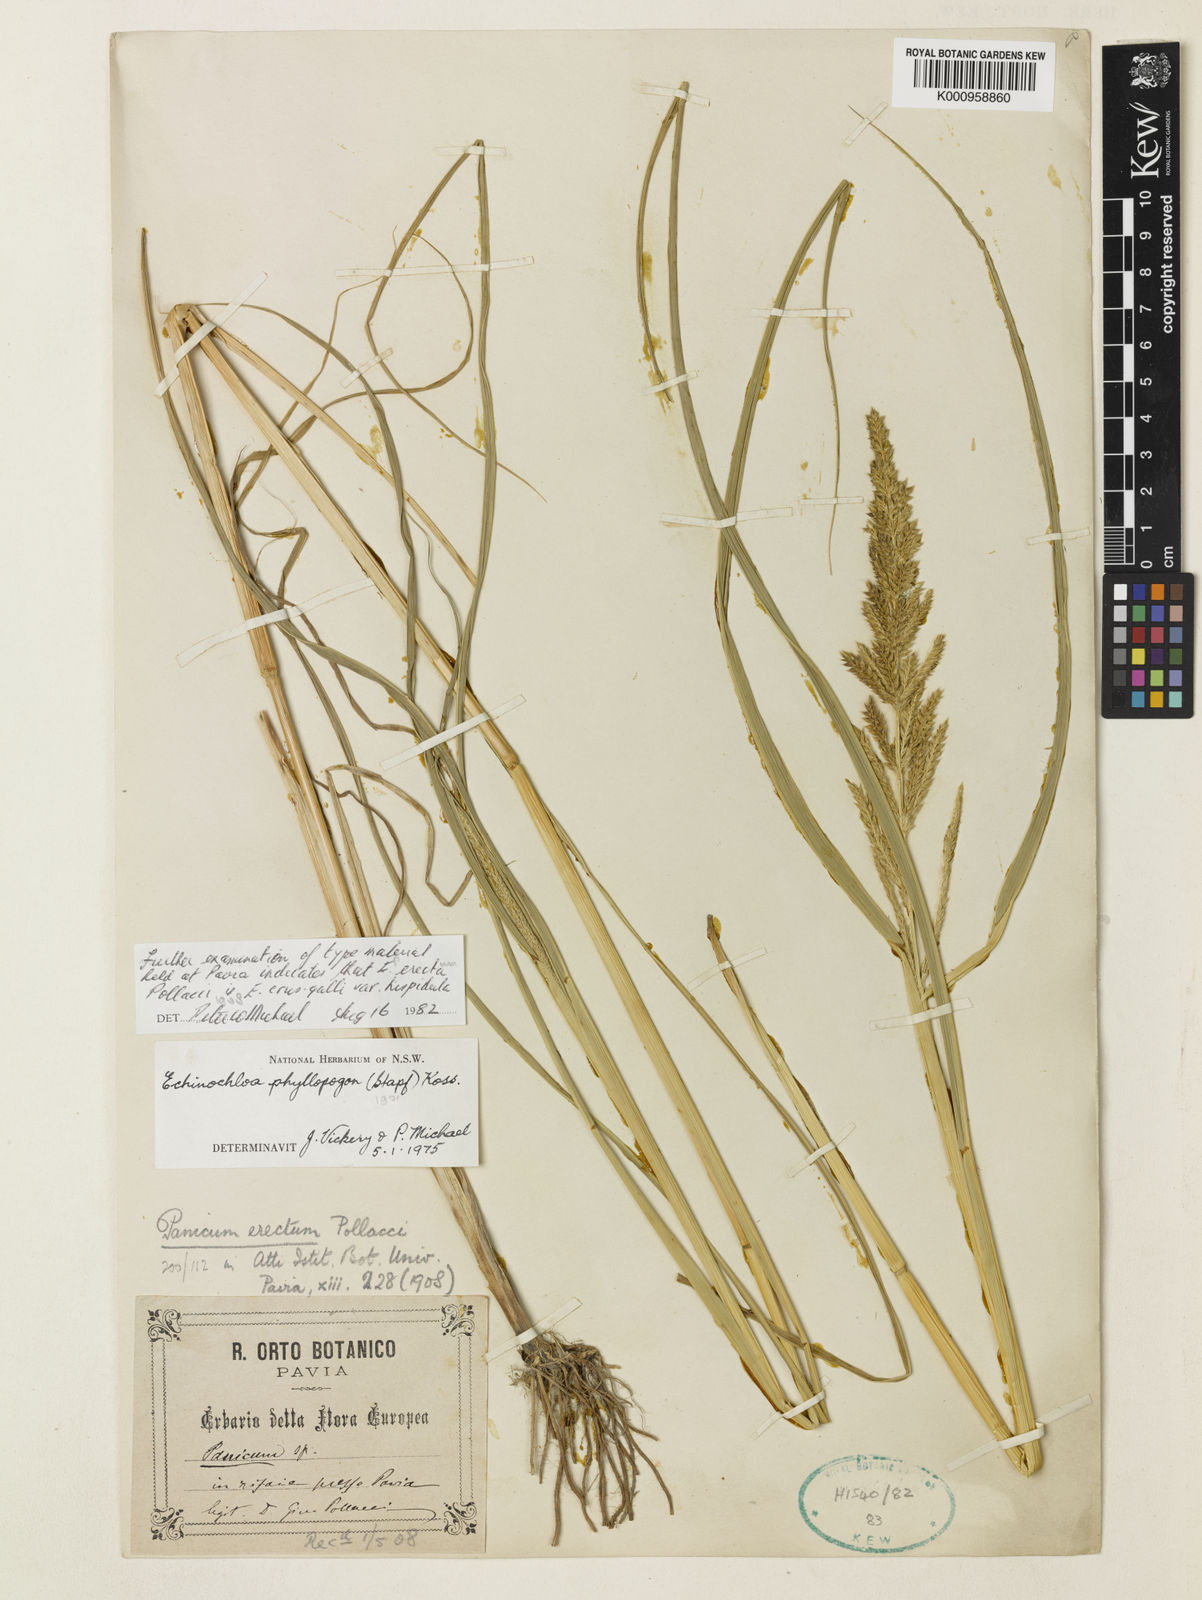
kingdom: Plantae
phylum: Tracheophyta
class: Liliopsida
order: Poales
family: Poaceae
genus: Echinochloa
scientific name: Echinochloa crus-galli
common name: Cockspur
